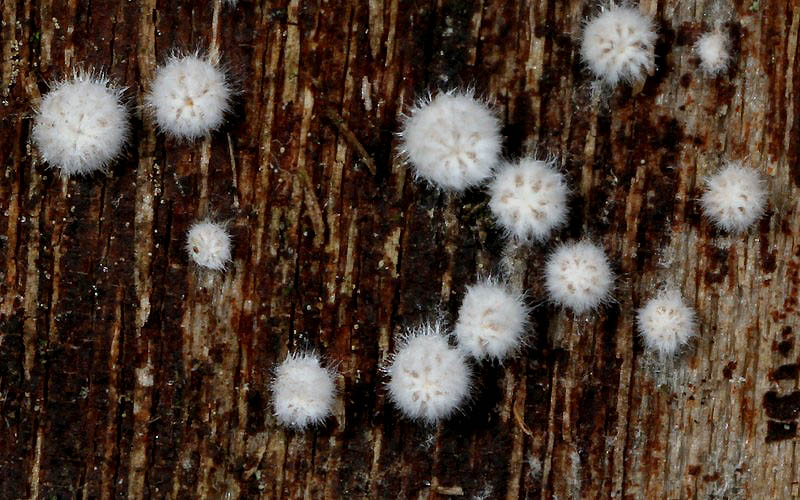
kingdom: Fungi
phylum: Basidiomycota
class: Agaricomycetes
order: Agaricales
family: Schizophyllaceae
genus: Schizophyllum
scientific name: Schizophyllum amplum
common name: poppel-hængeøre
